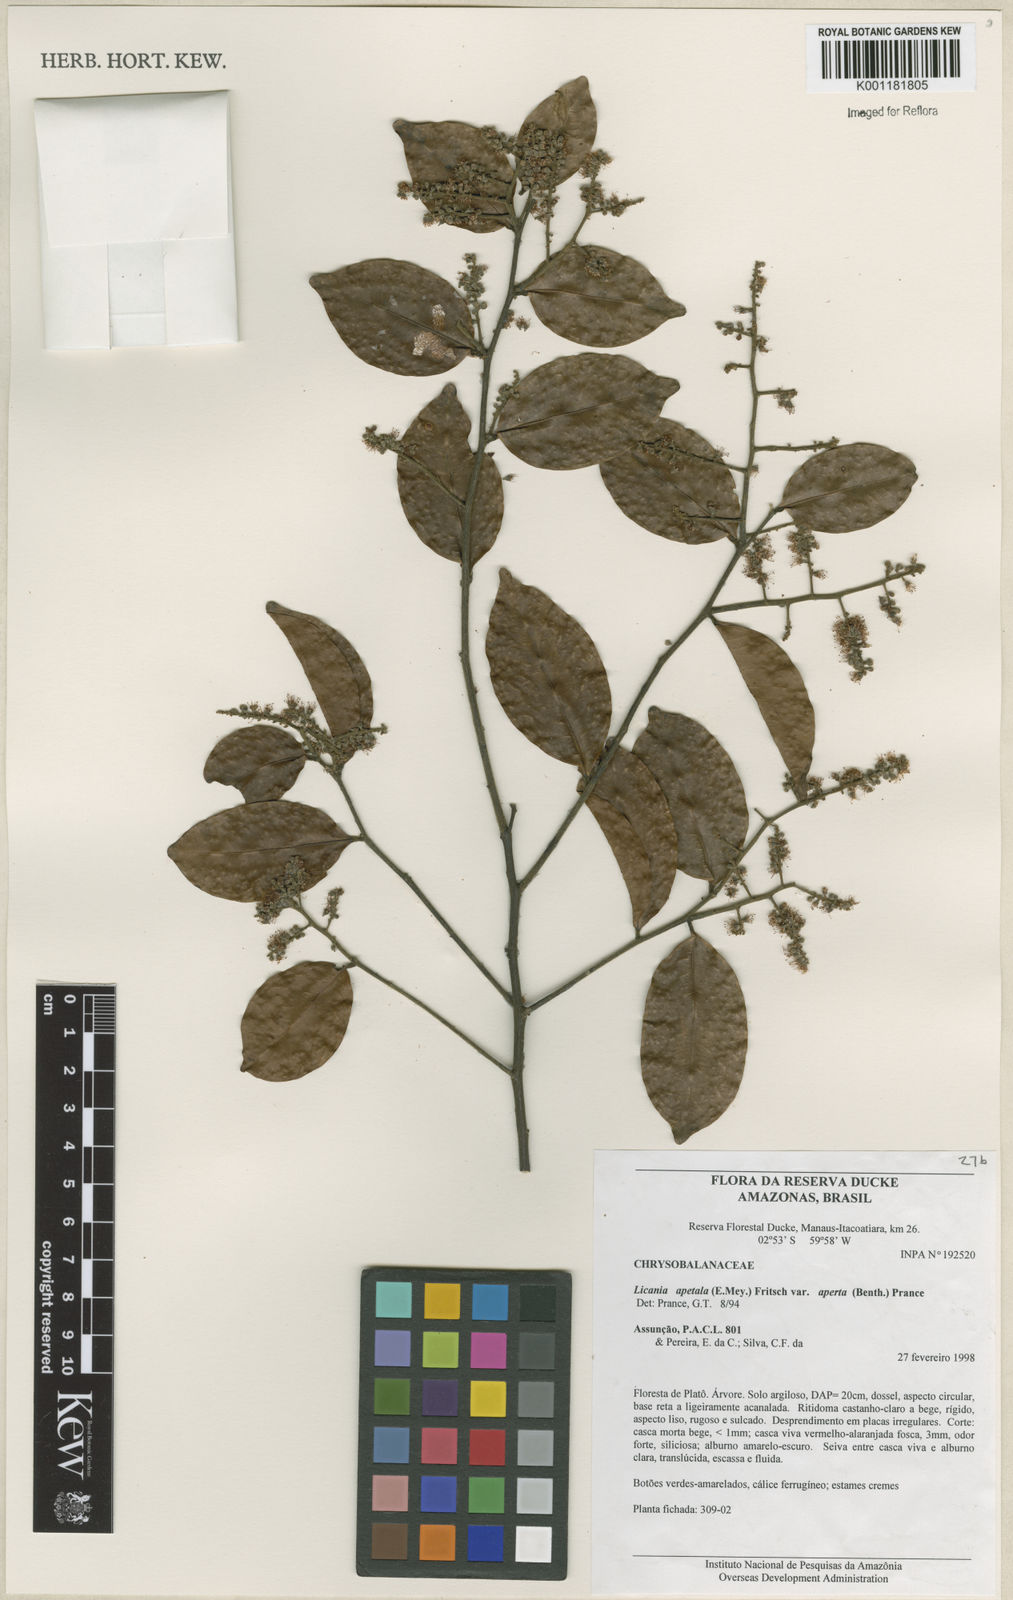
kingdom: Plantae
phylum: Tracheophyta
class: Magnoliopsida
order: Malpighiales
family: Chrysobalanaceae
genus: Leptobalanus
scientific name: Leptobalanus apetalus
